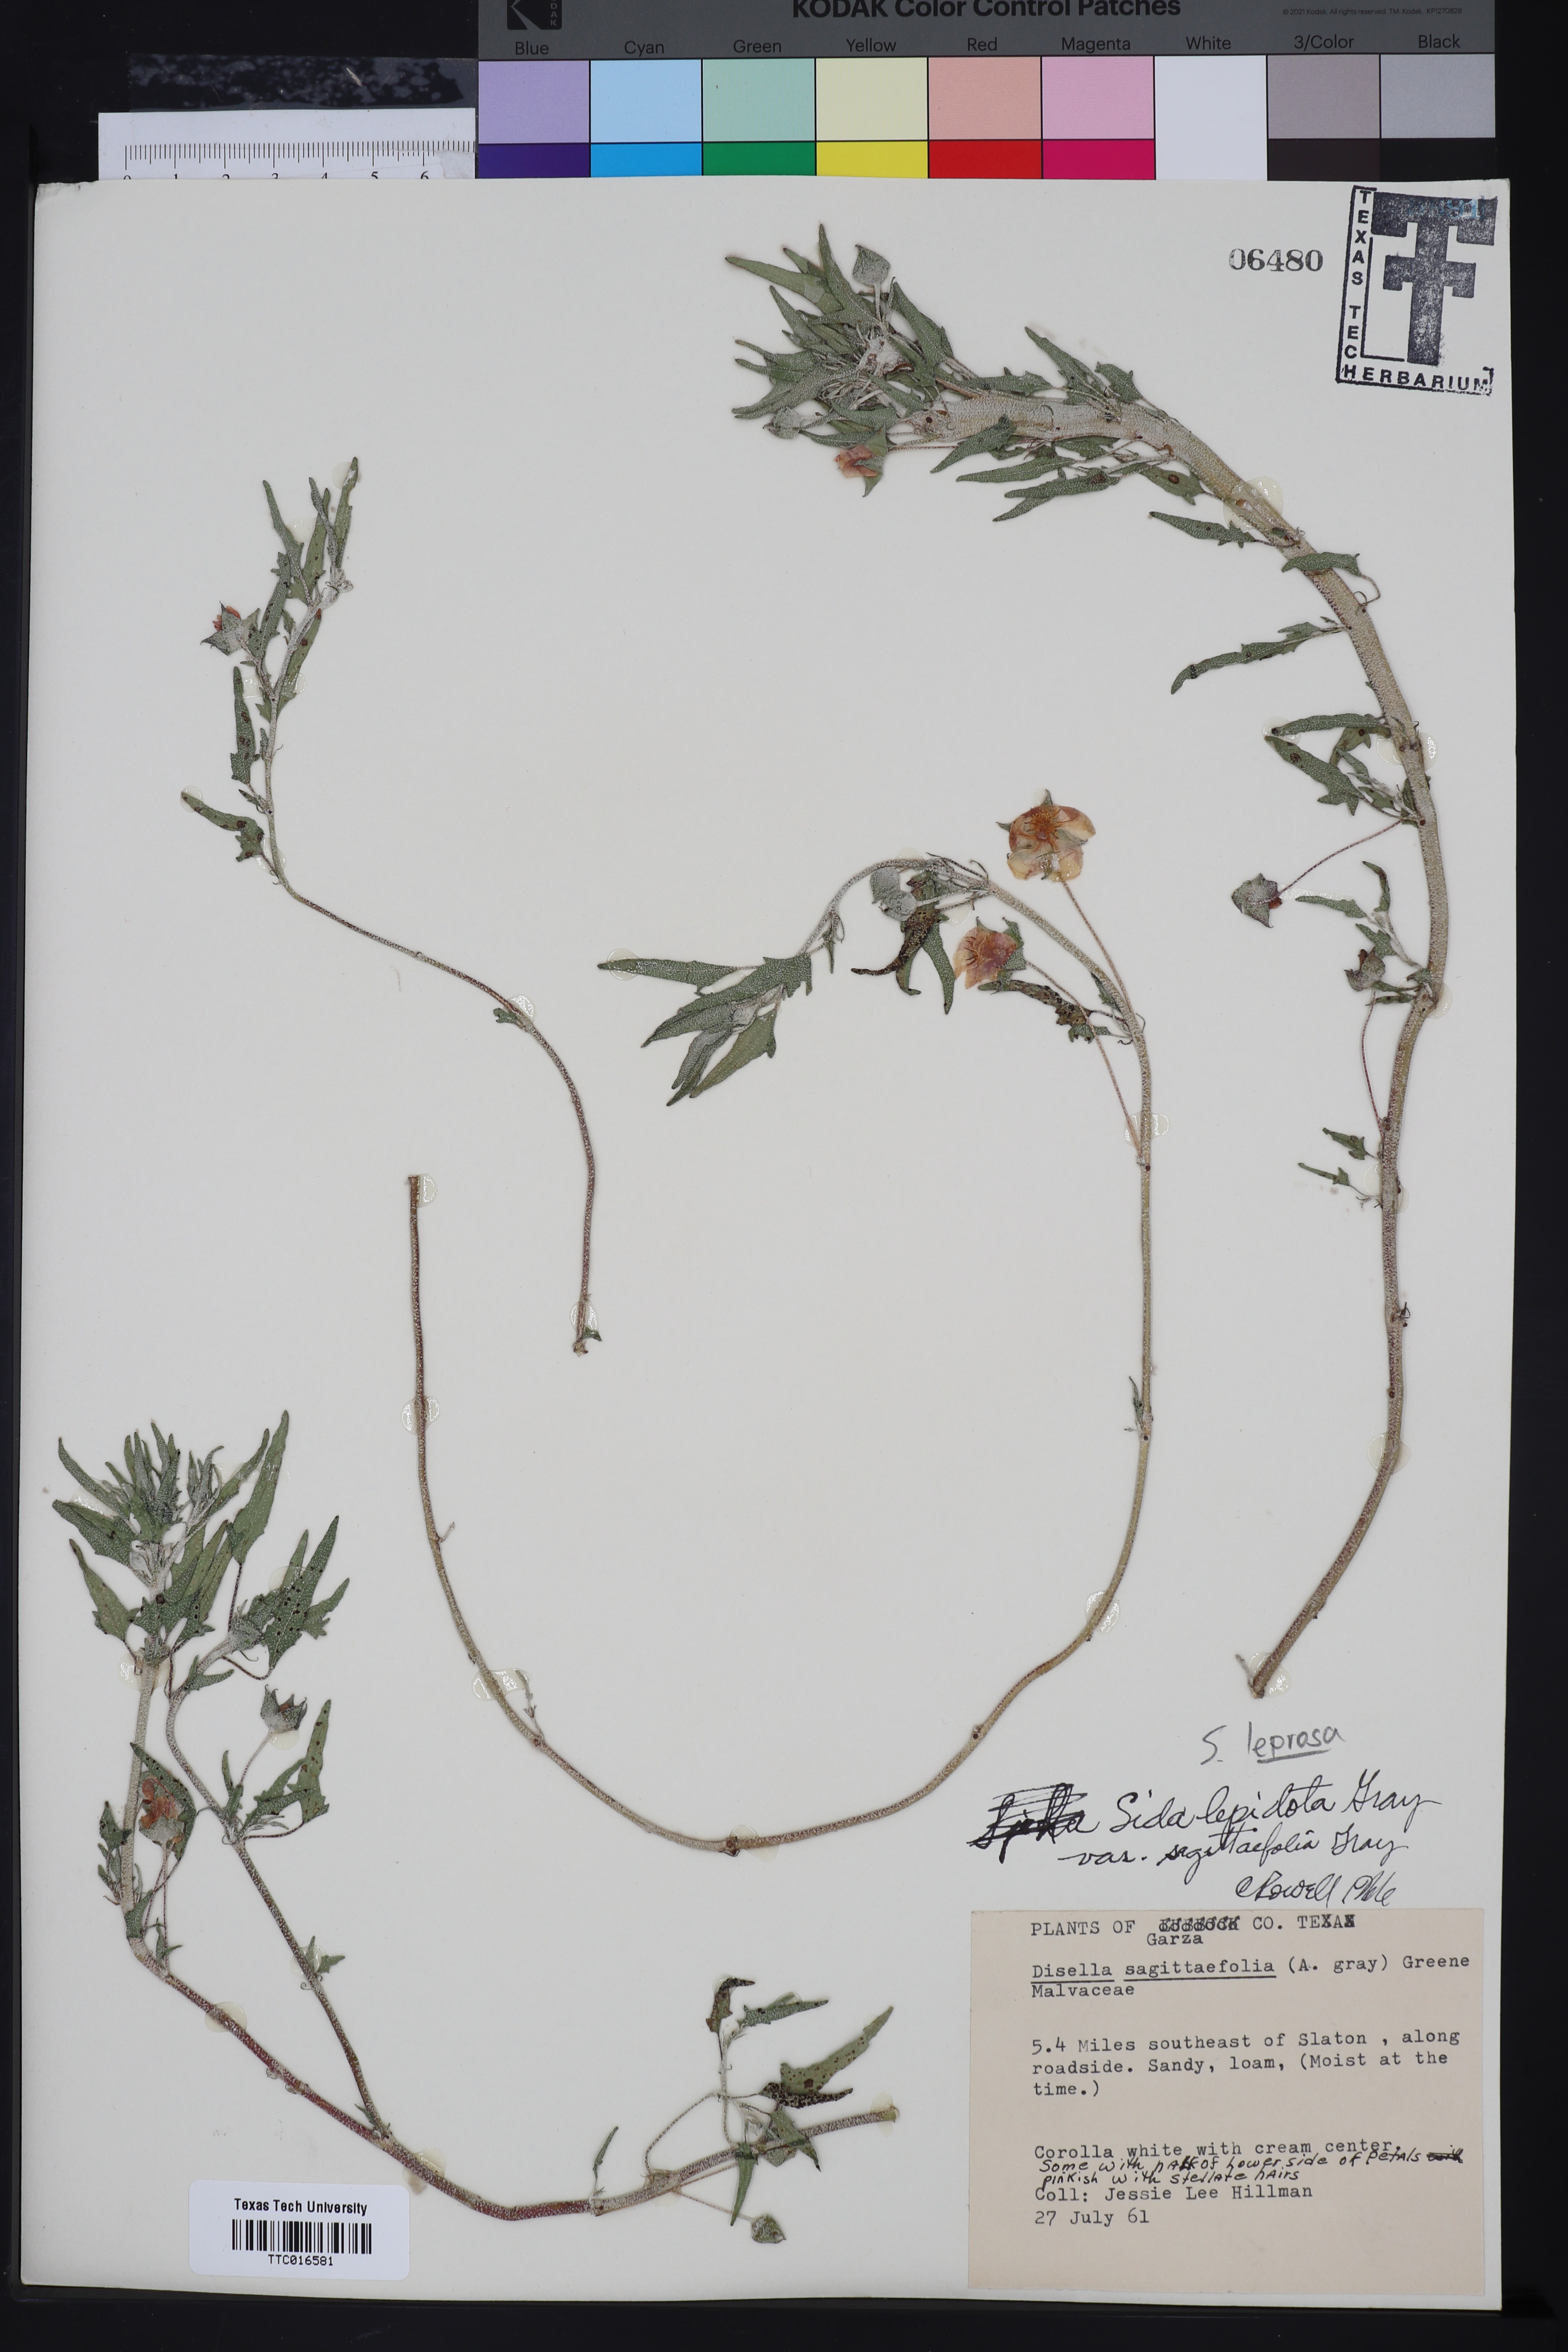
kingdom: Plantae
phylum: Tracheophyta
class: Magnoliopsida
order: Malvales
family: Malvaceae
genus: Malvella
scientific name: Malvella leprosa
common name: Alkali-mallow
